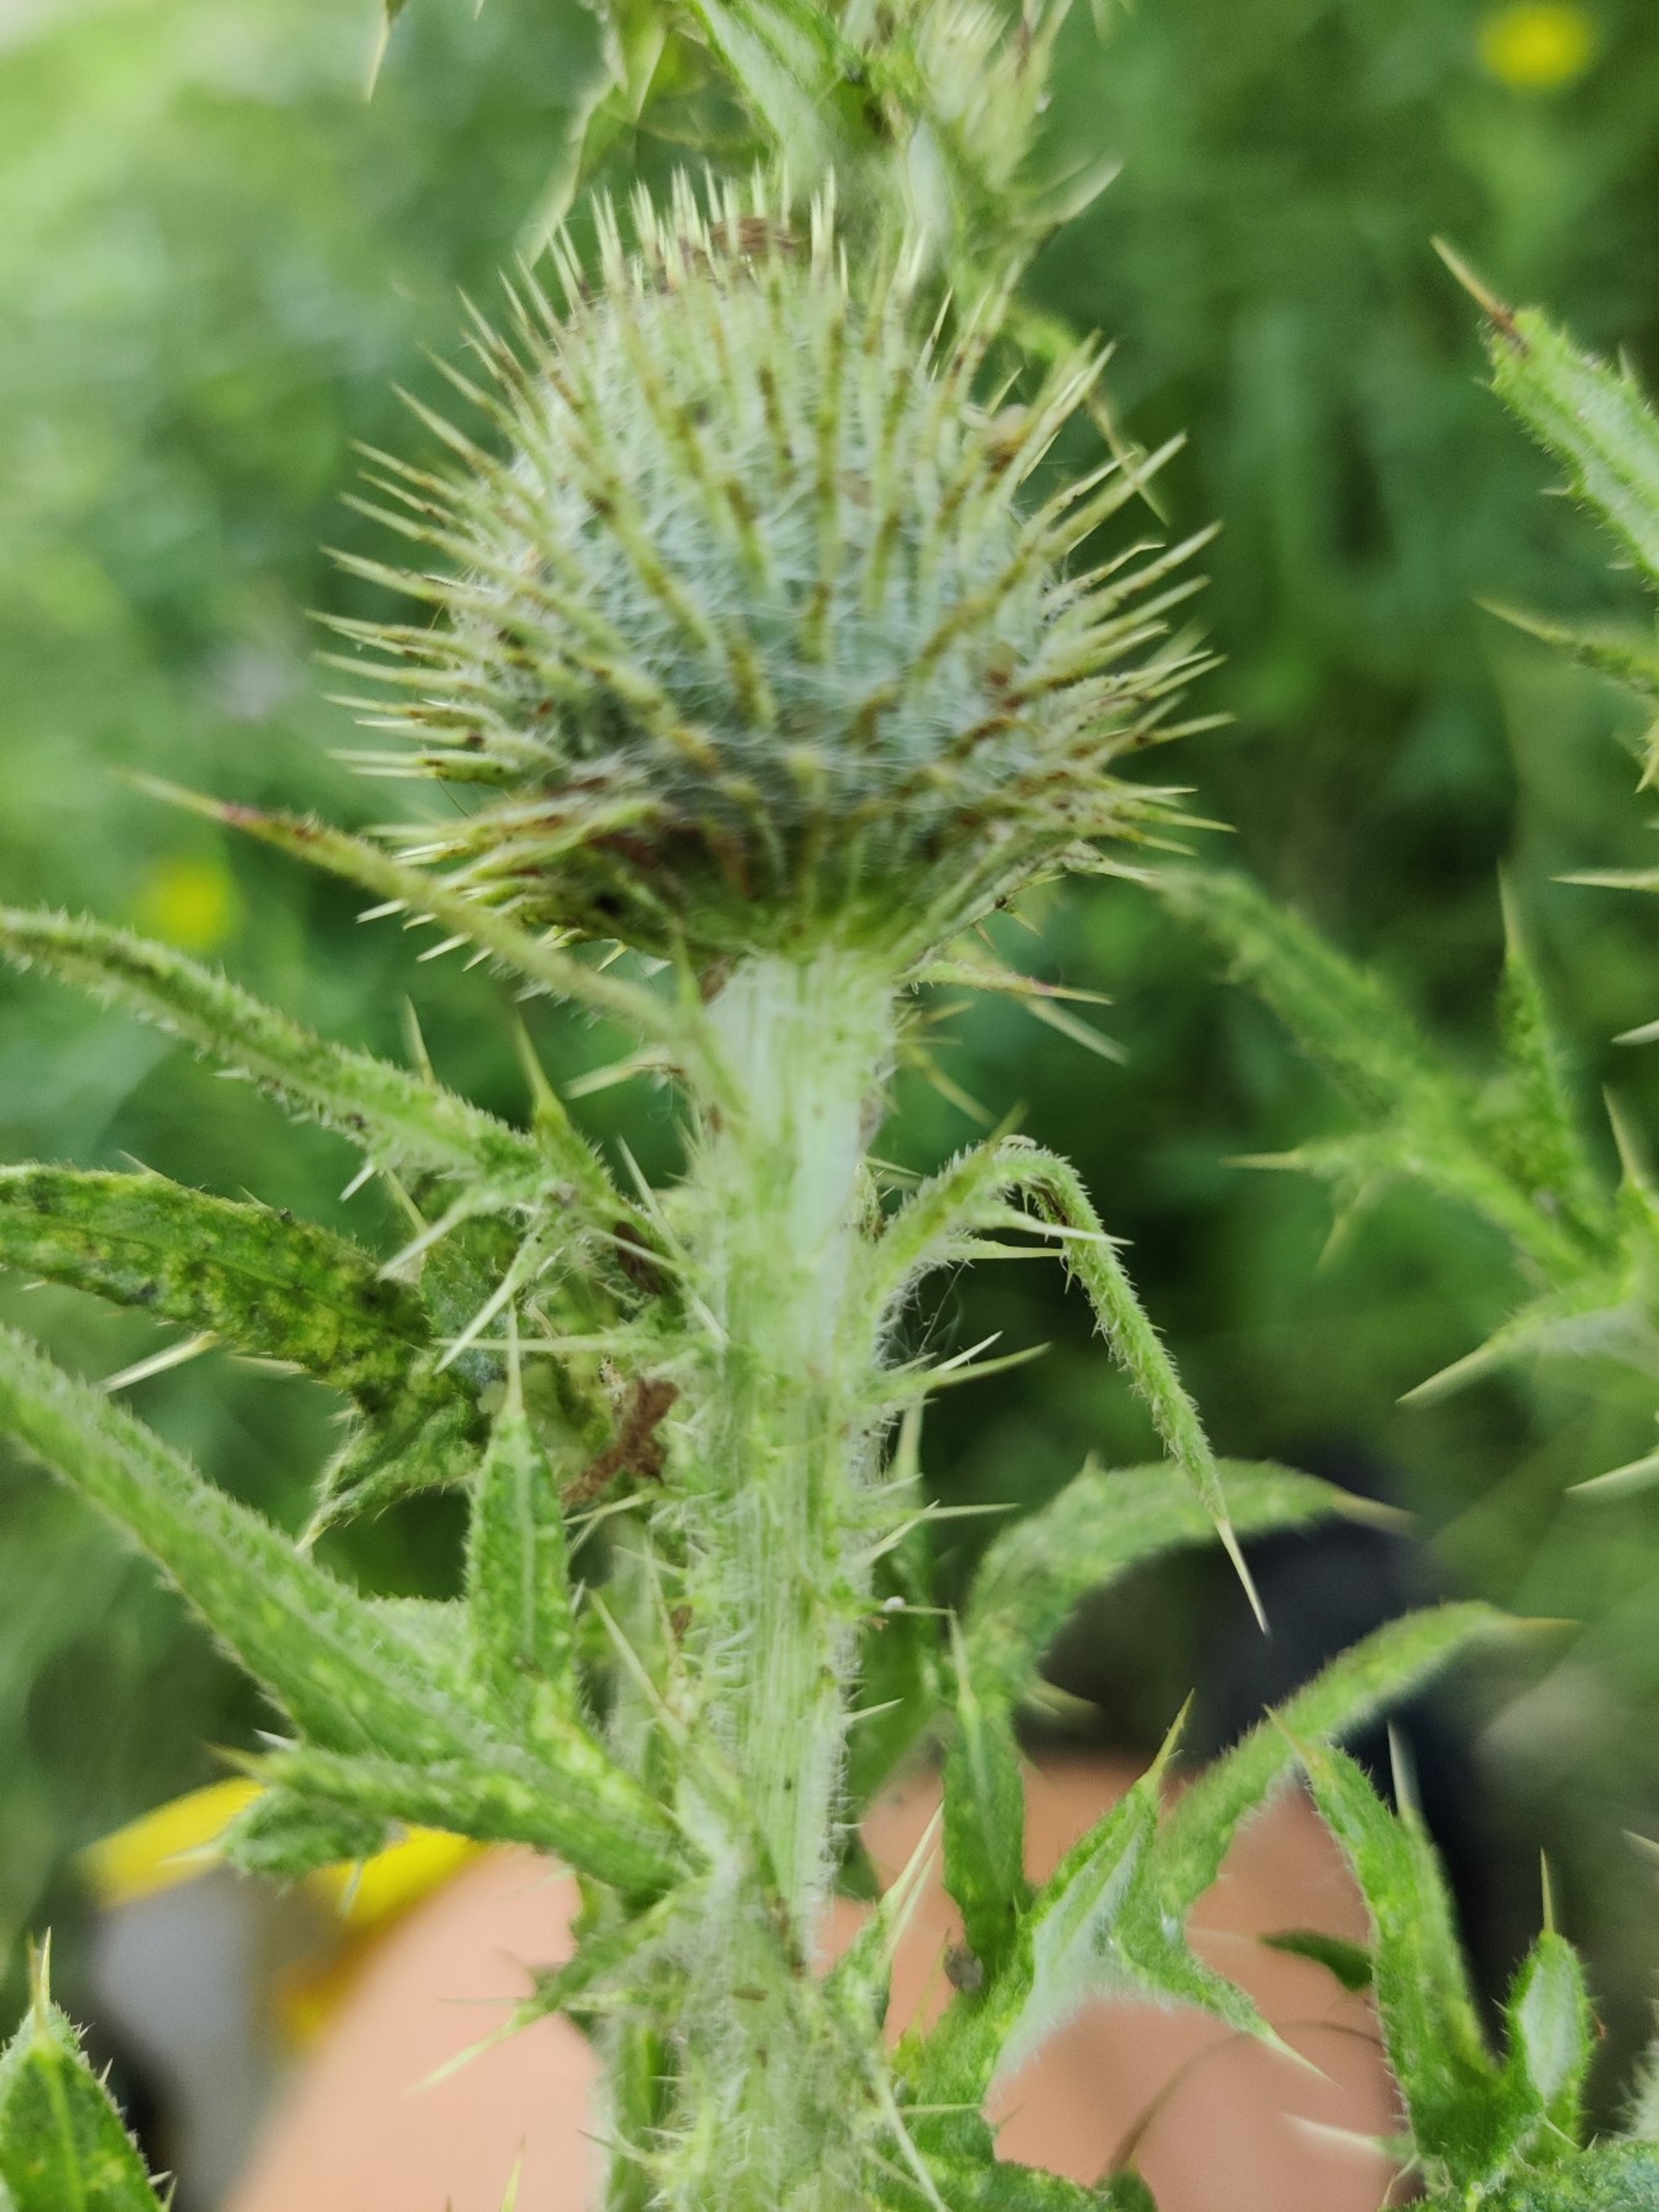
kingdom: Plantae
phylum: Tracheophyta
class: Magnoliopsida
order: Asterales
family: Asteraceae
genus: Cirsium
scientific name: Cirsium vulgare
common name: Horse-tidsel
